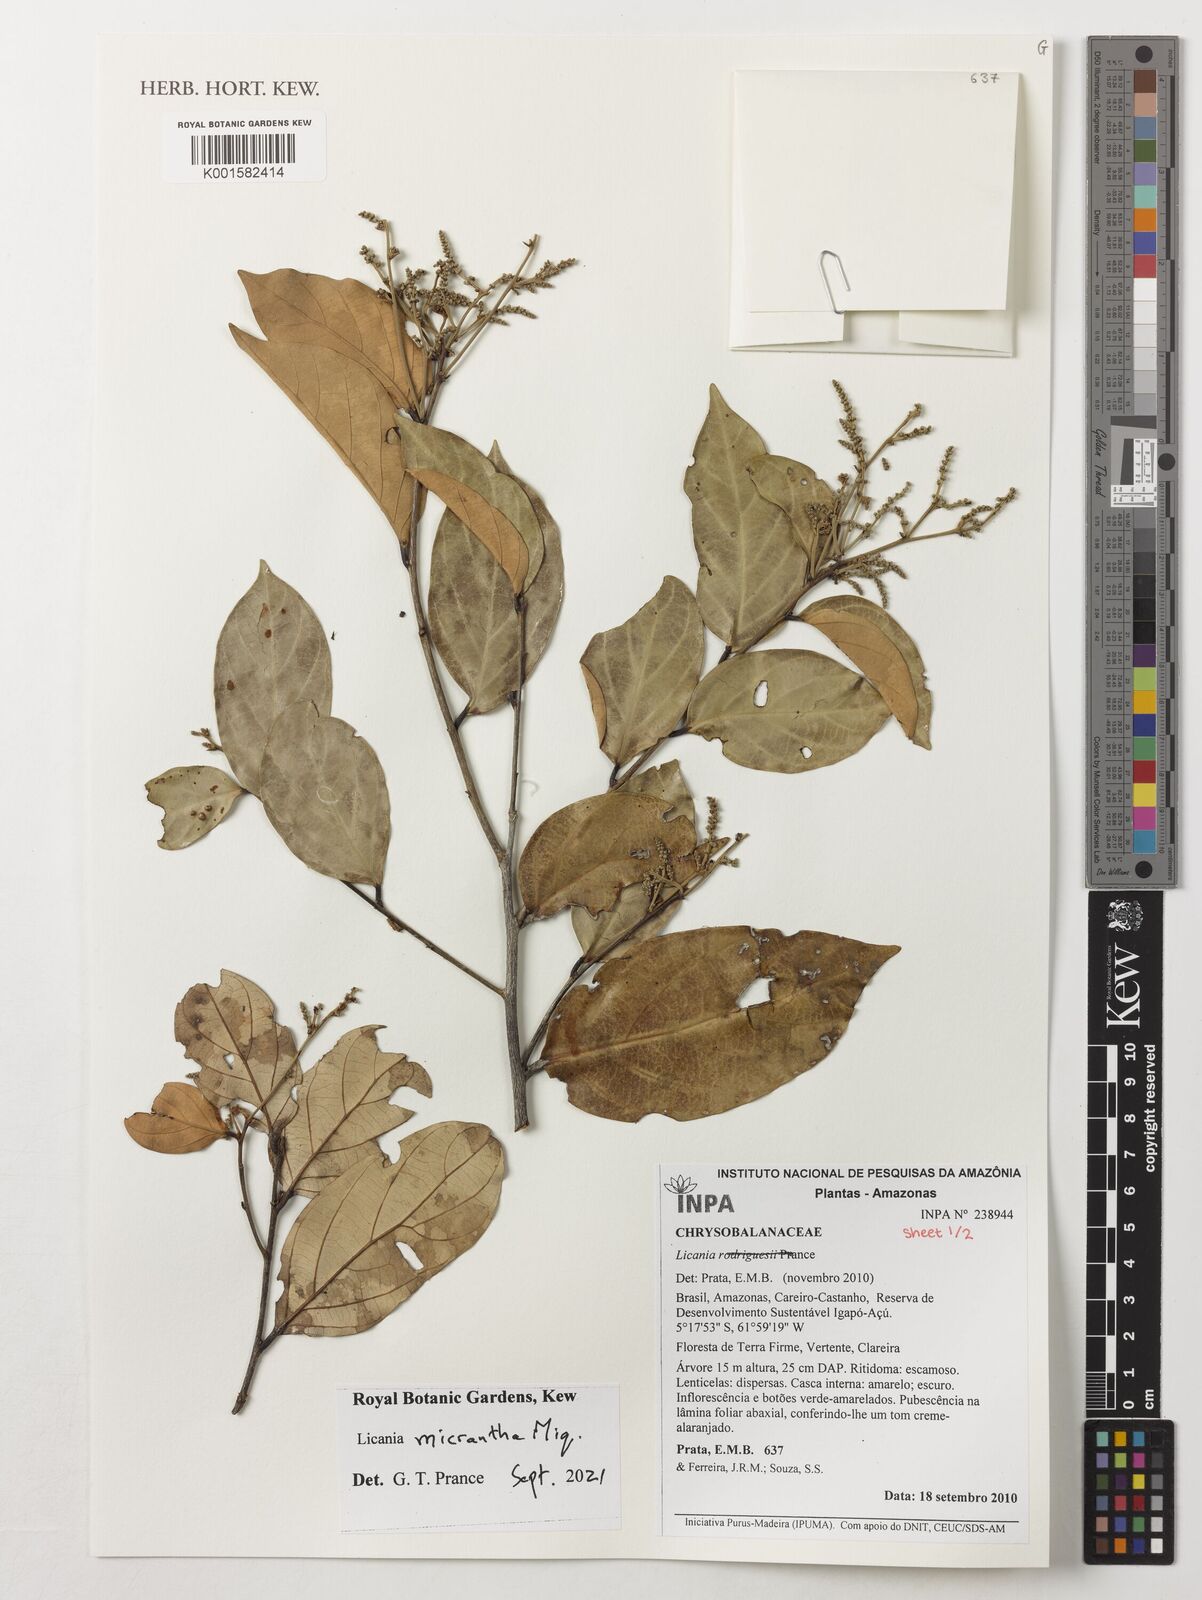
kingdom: Plantae
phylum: Tracheophyta
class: Magnoliopsida
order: Malpighiales
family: Chrysobalanaceae
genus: Licania
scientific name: Licania micrantha
